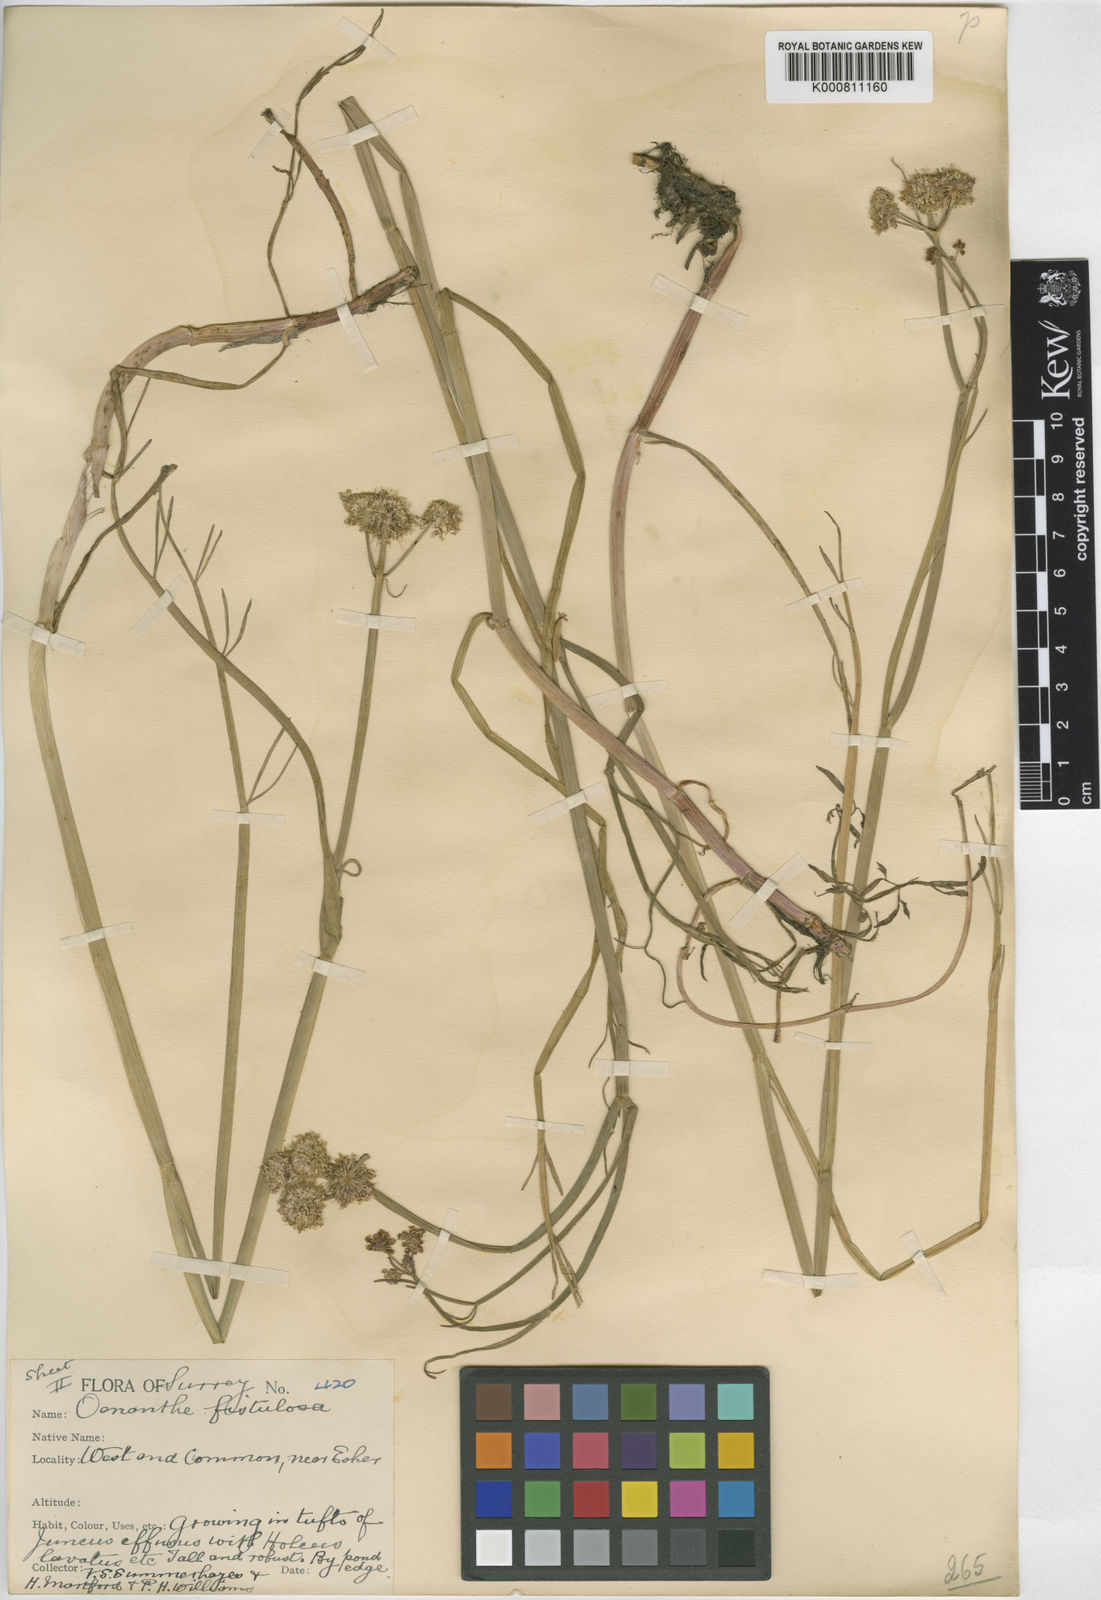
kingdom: Plantae
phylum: Tracheophyta
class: Magnoliopsida
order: Apiales
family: Apiaceae
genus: Oenanthe
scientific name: Oenanthe fistulosa
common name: Tubular water-dropwort
